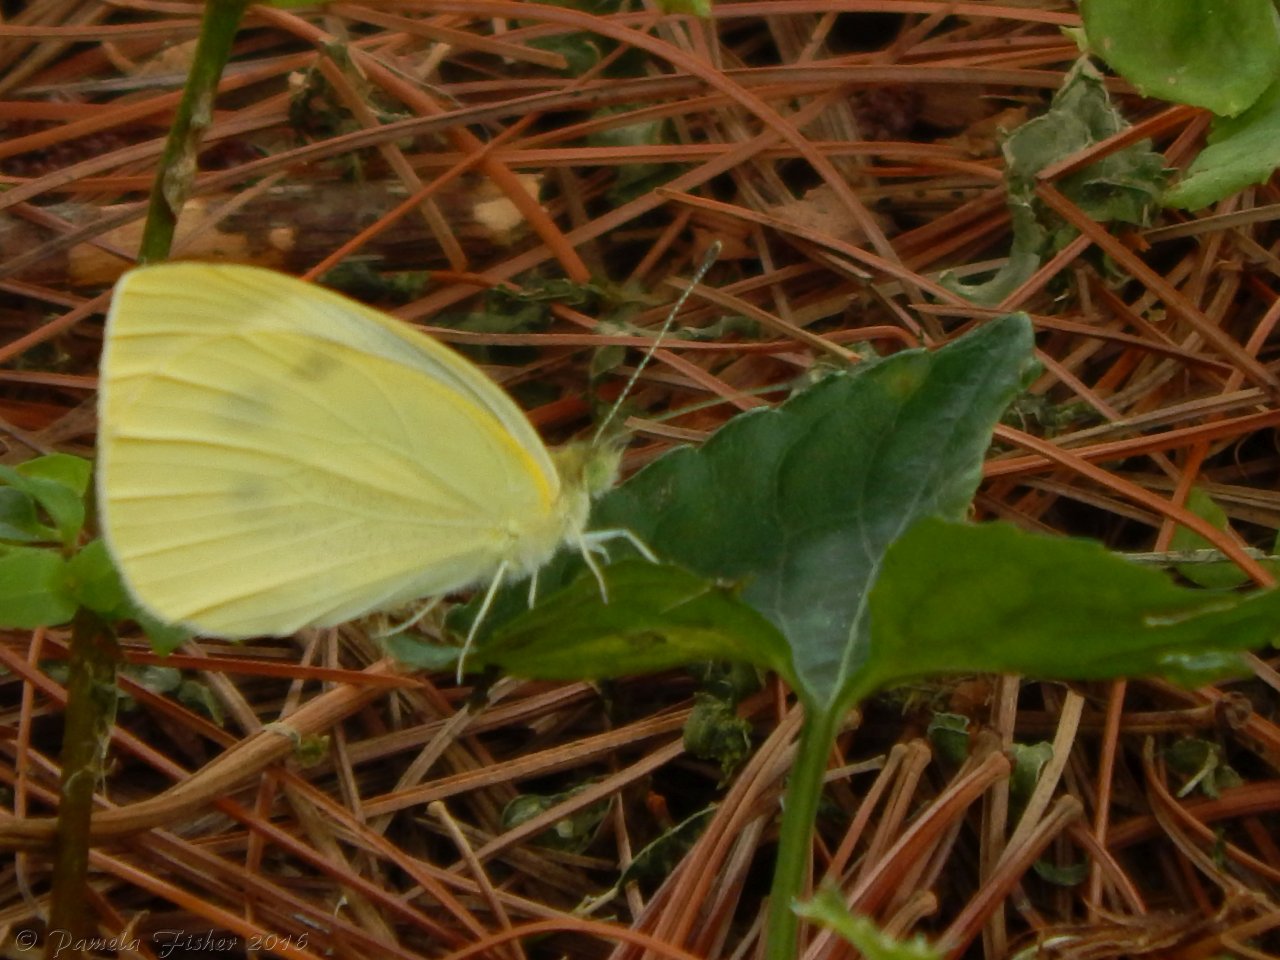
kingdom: Animalia
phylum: Arthropoda
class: Insecta
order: Lepidoptera
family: Pieridae
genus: Pieris
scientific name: Pieris rapae
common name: Cabbage White
